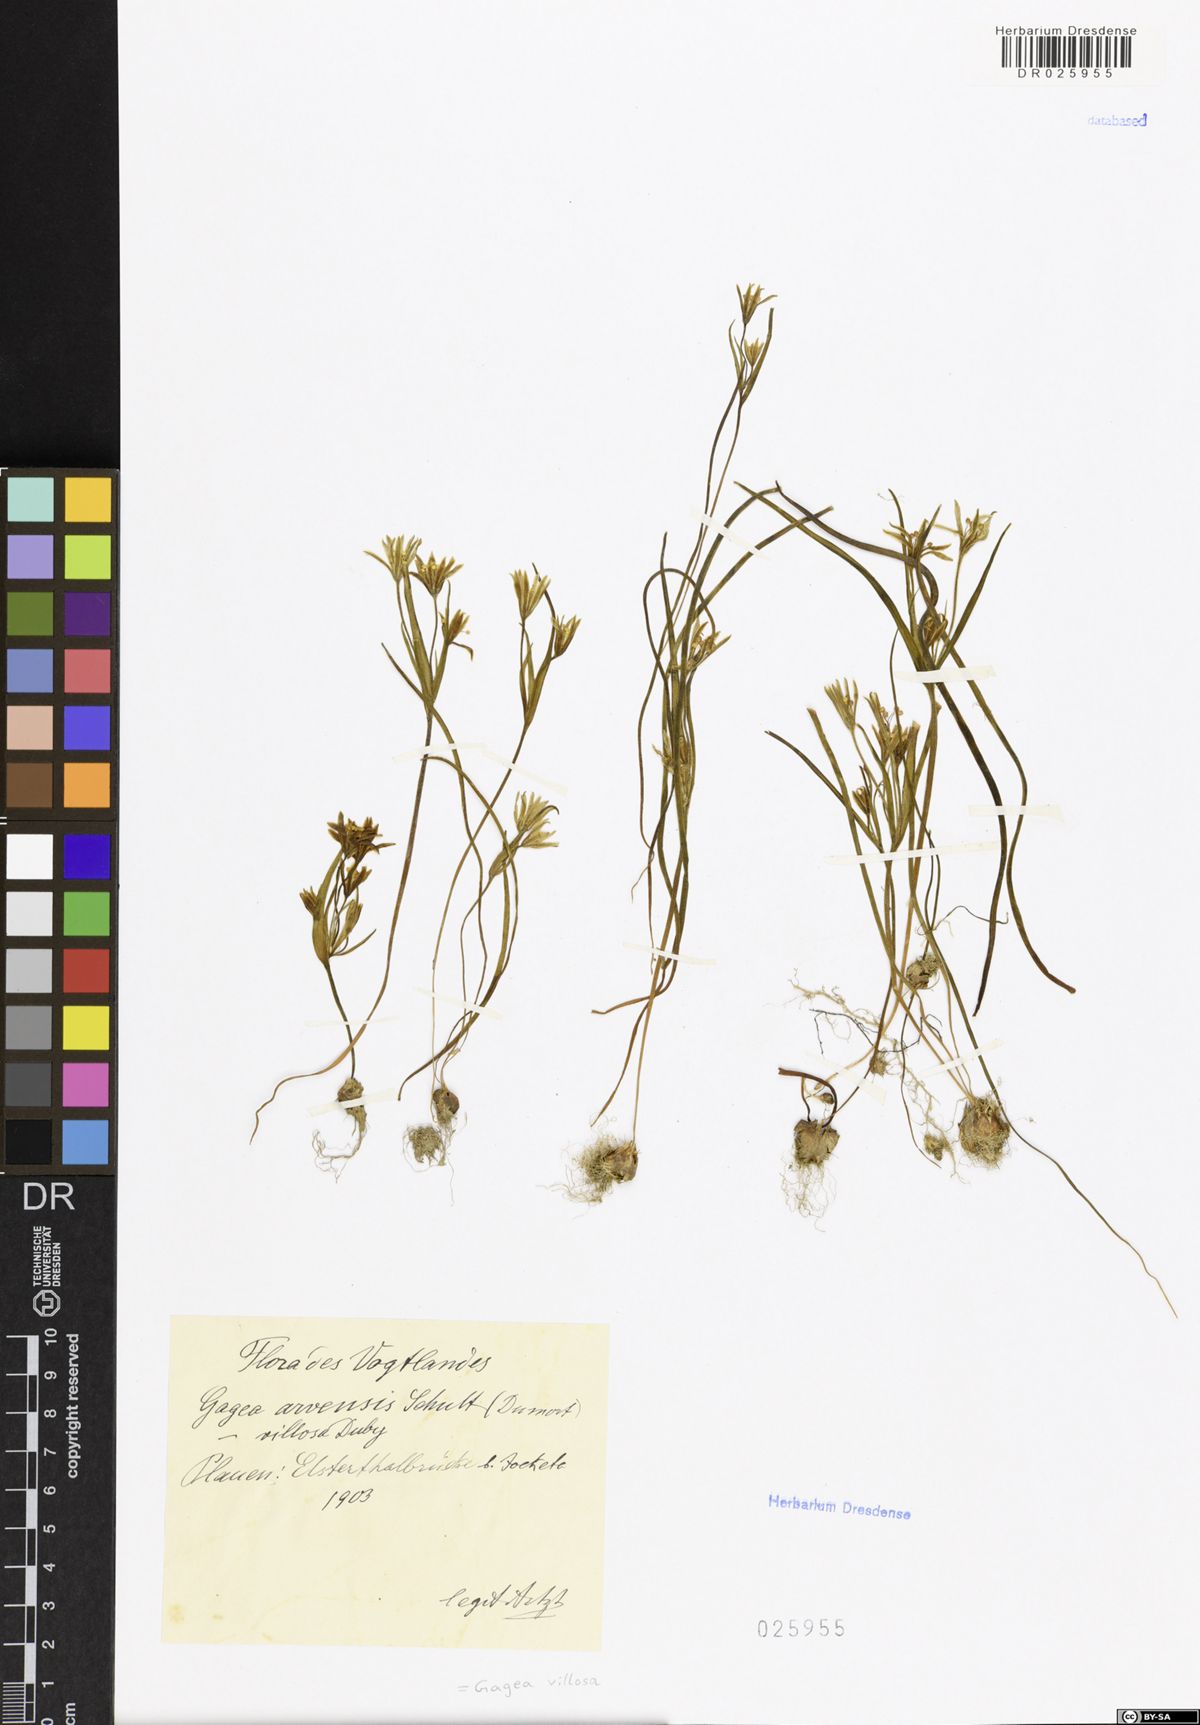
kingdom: Plantae
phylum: Tracheophyta
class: Liliopsida
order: Liliales
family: Liliaceae
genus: Gagea
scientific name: Gagea villosa
